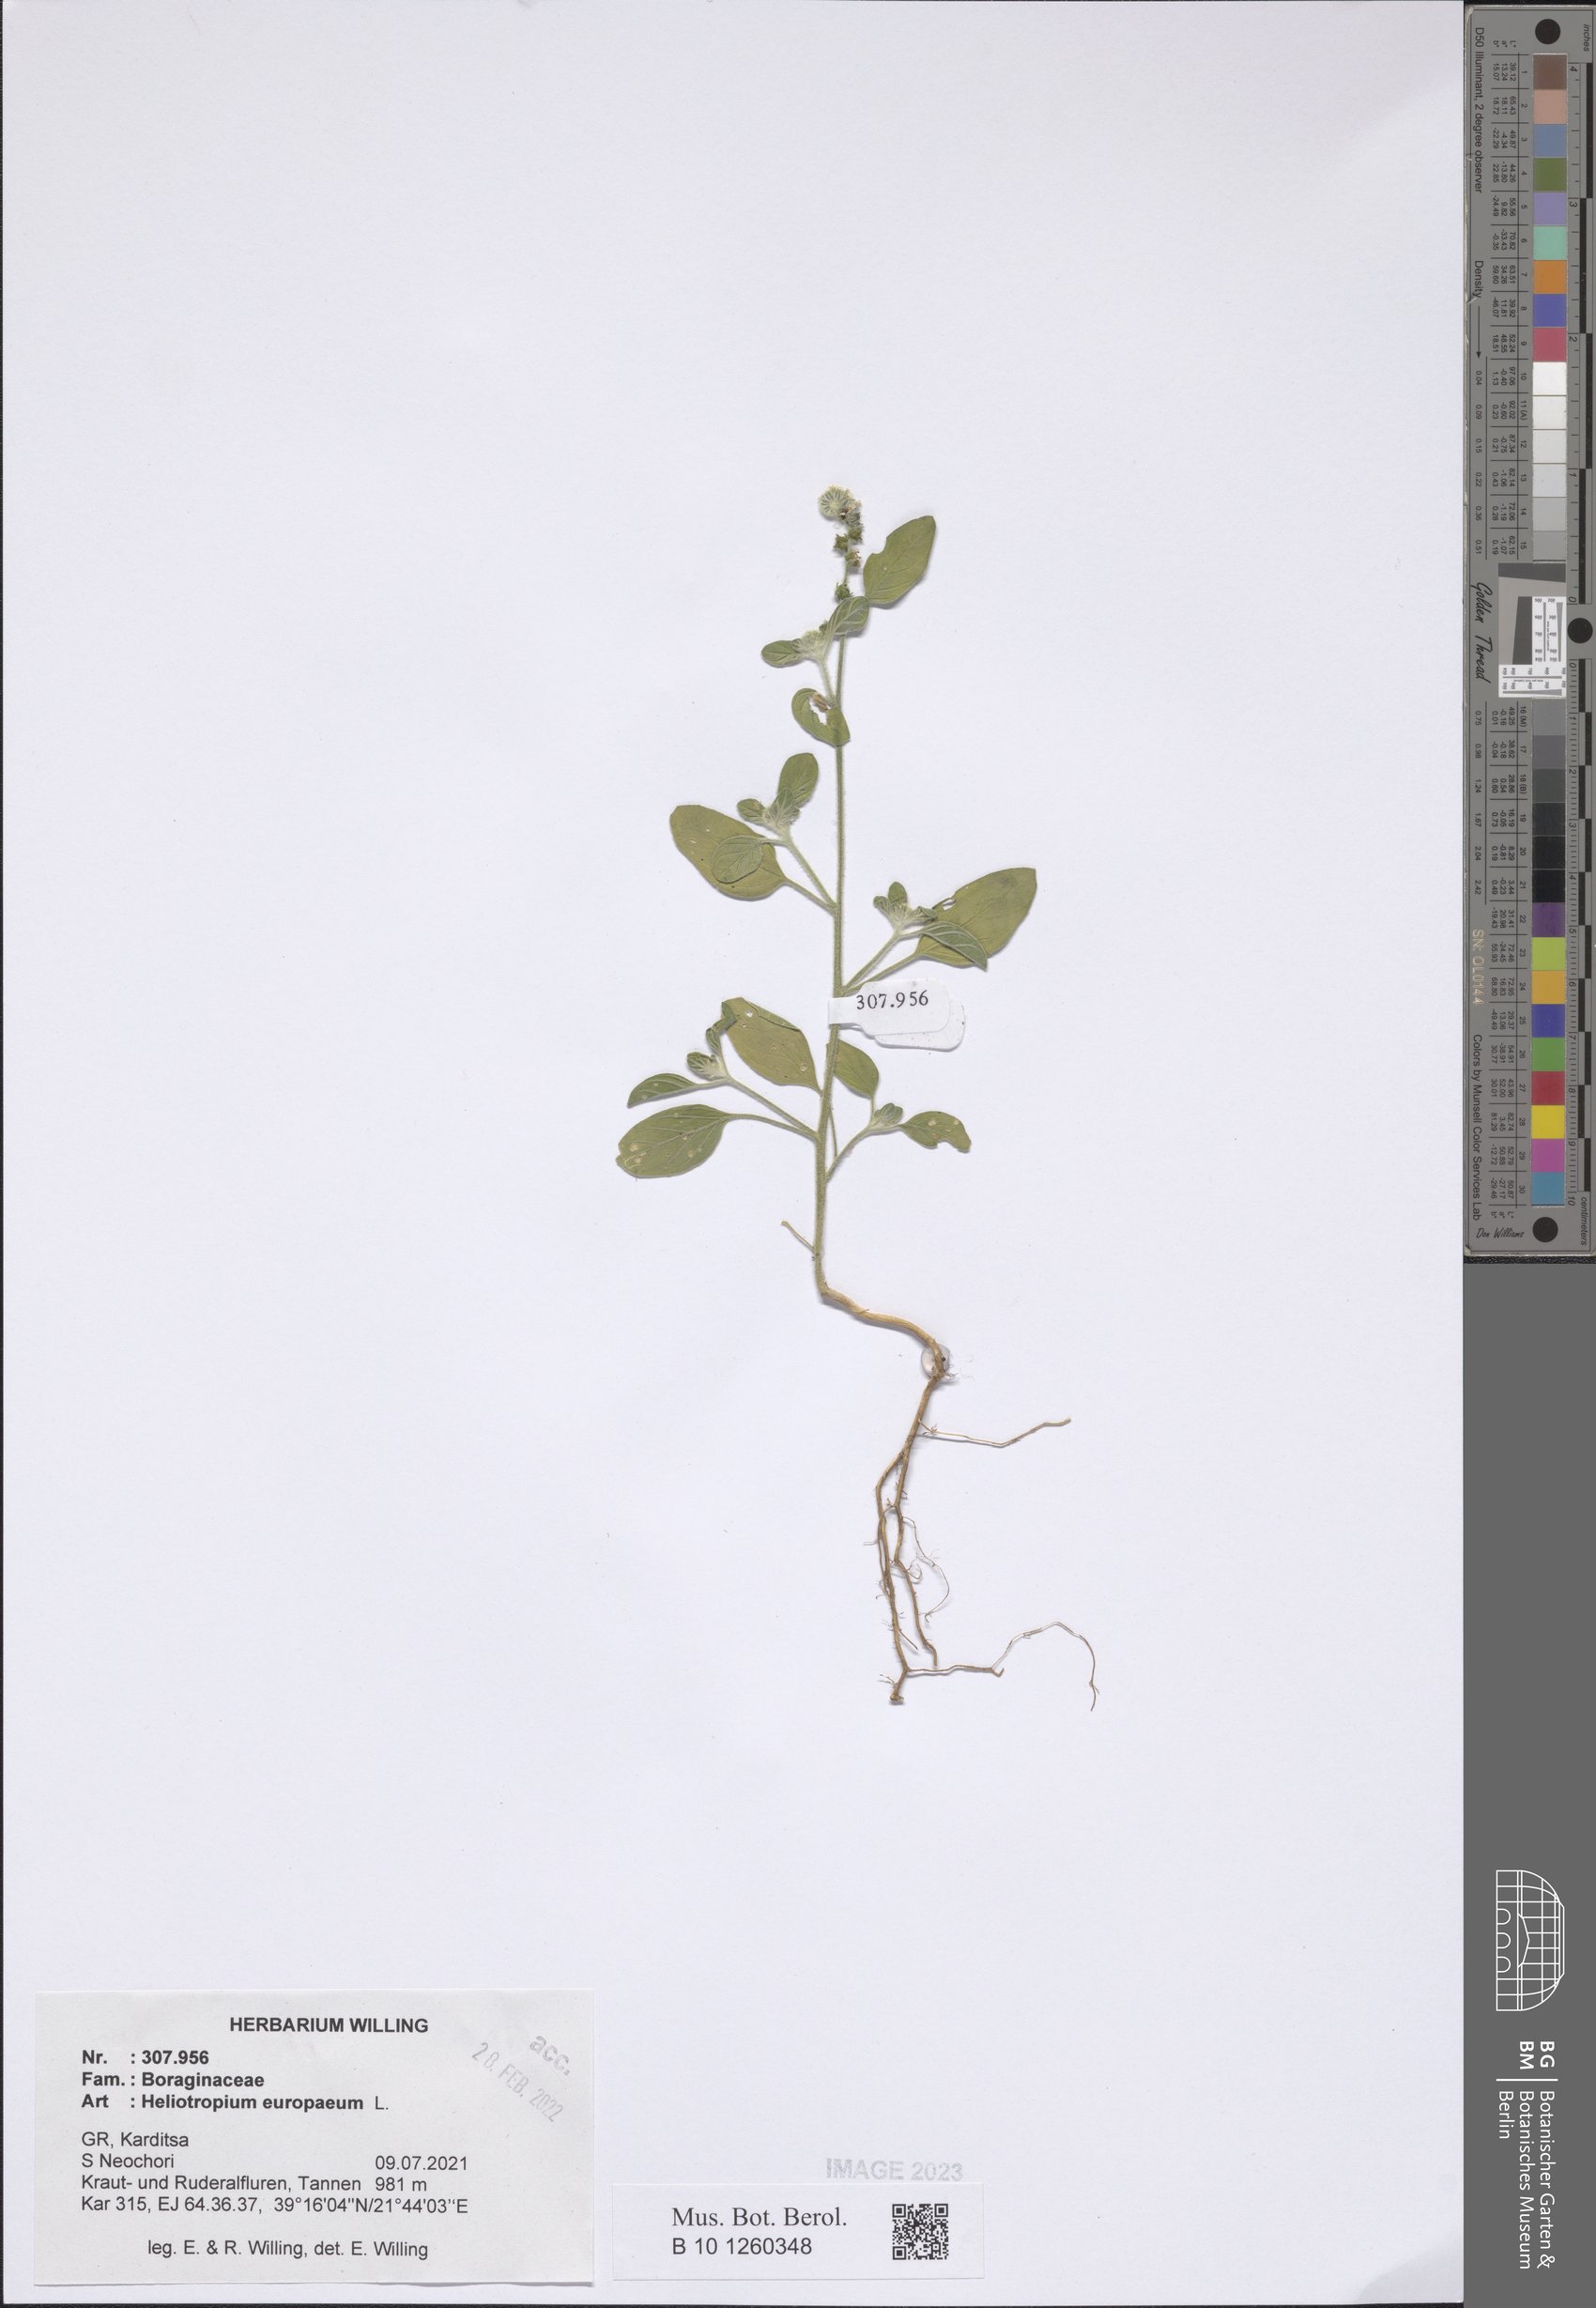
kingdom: Plantae
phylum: Tracheophyta
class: Magnoliopsida
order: Boraginales
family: Heliotropiaceae
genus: Heliotropium
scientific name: Heliotropium europaeum
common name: European heliotrope
